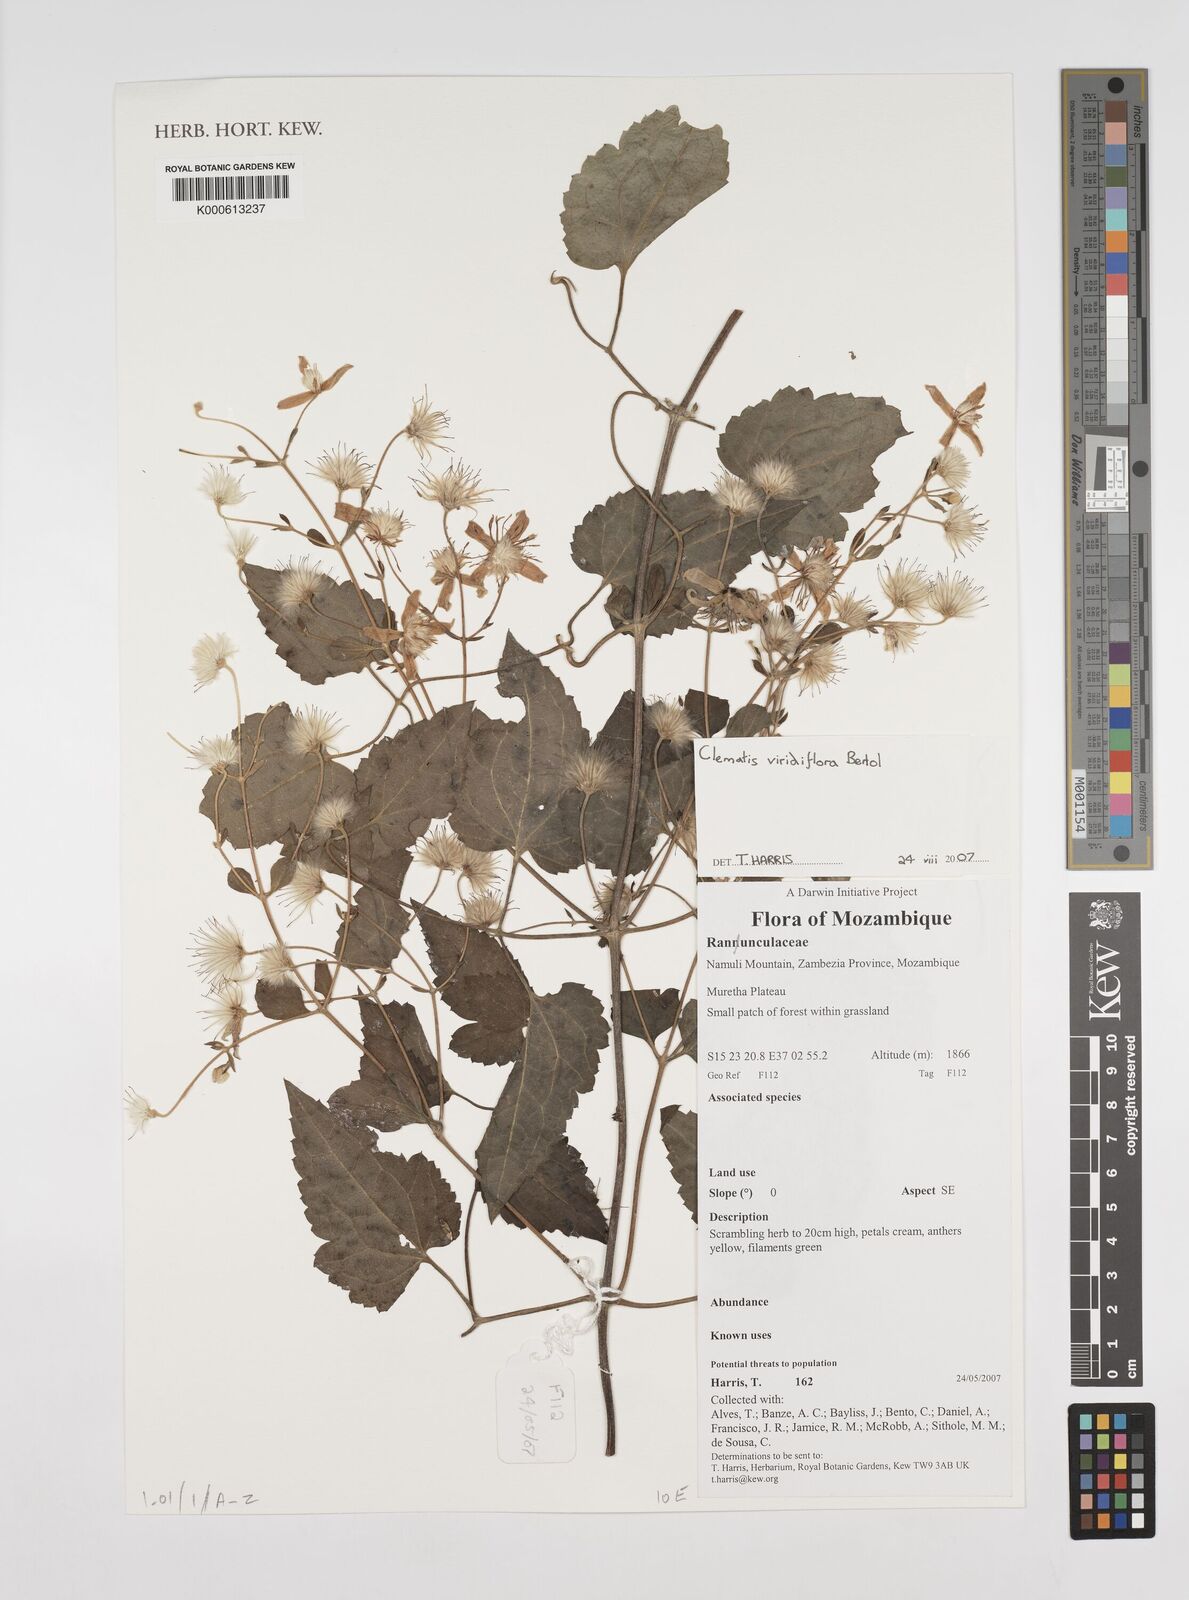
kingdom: Plantae
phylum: Tracheophyta
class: Magnoliopsida
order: Ranunculales
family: Ranunculaceae
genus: Clematis
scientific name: Clematis viridiflora
